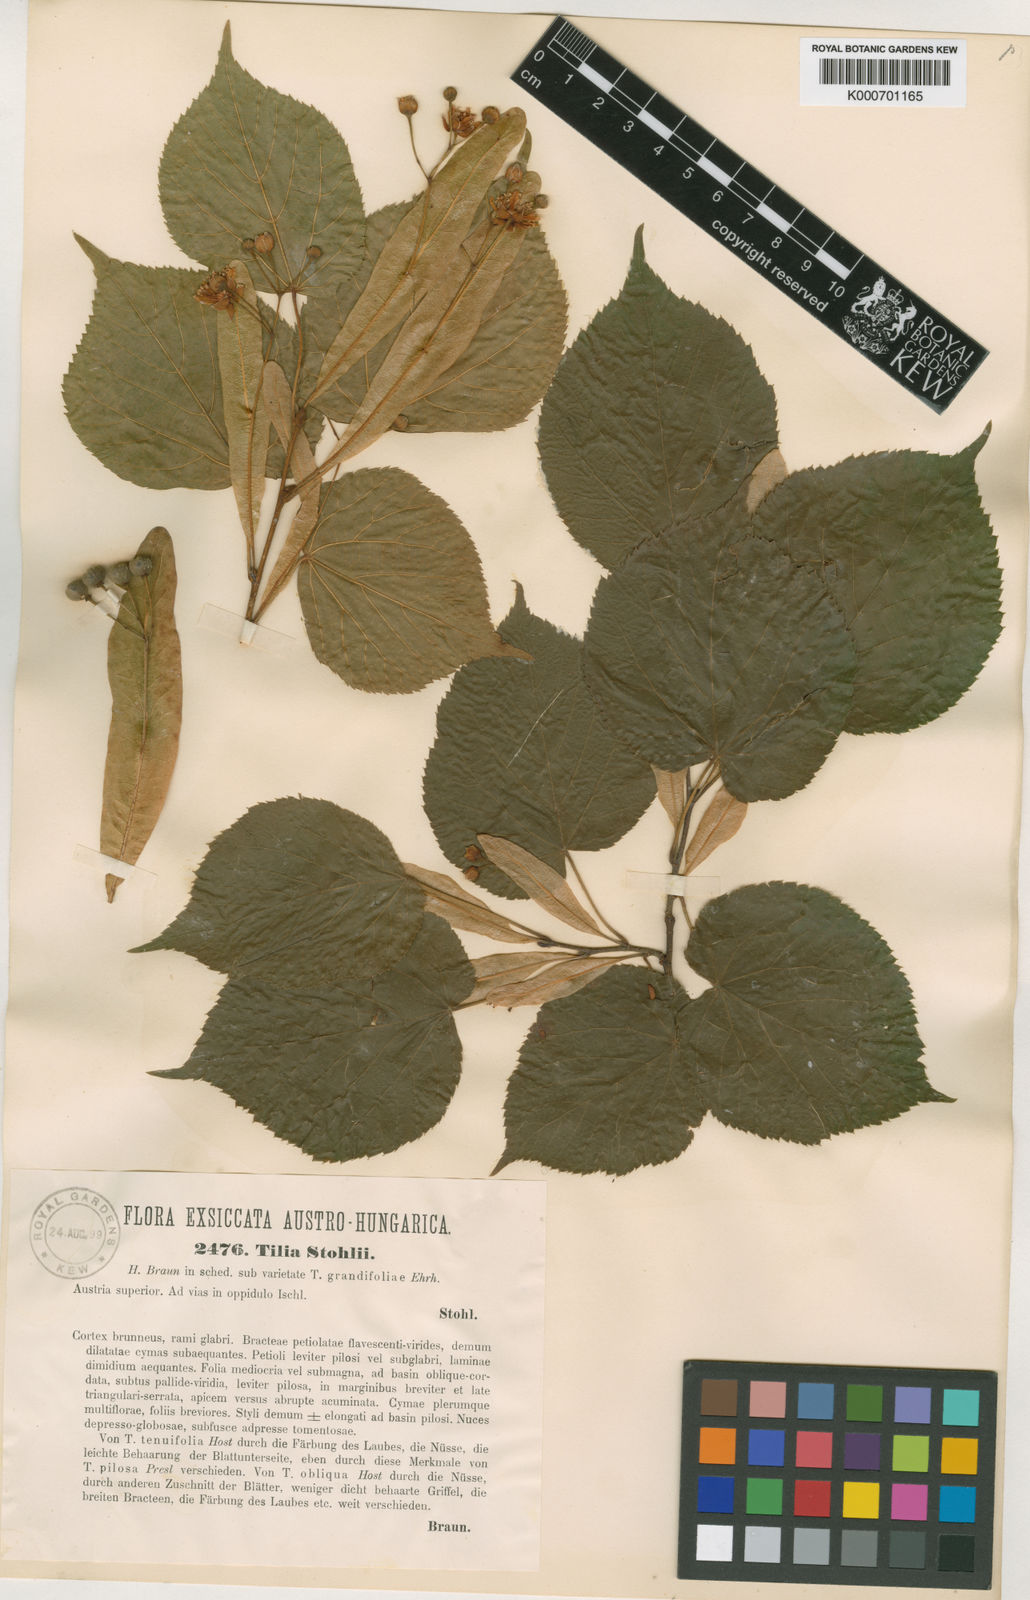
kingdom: Plantae
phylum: Tracheophyta
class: Magnoliopsida
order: Malvales
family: Malvaceae
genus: Tilia
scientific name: Tilia stohlii
